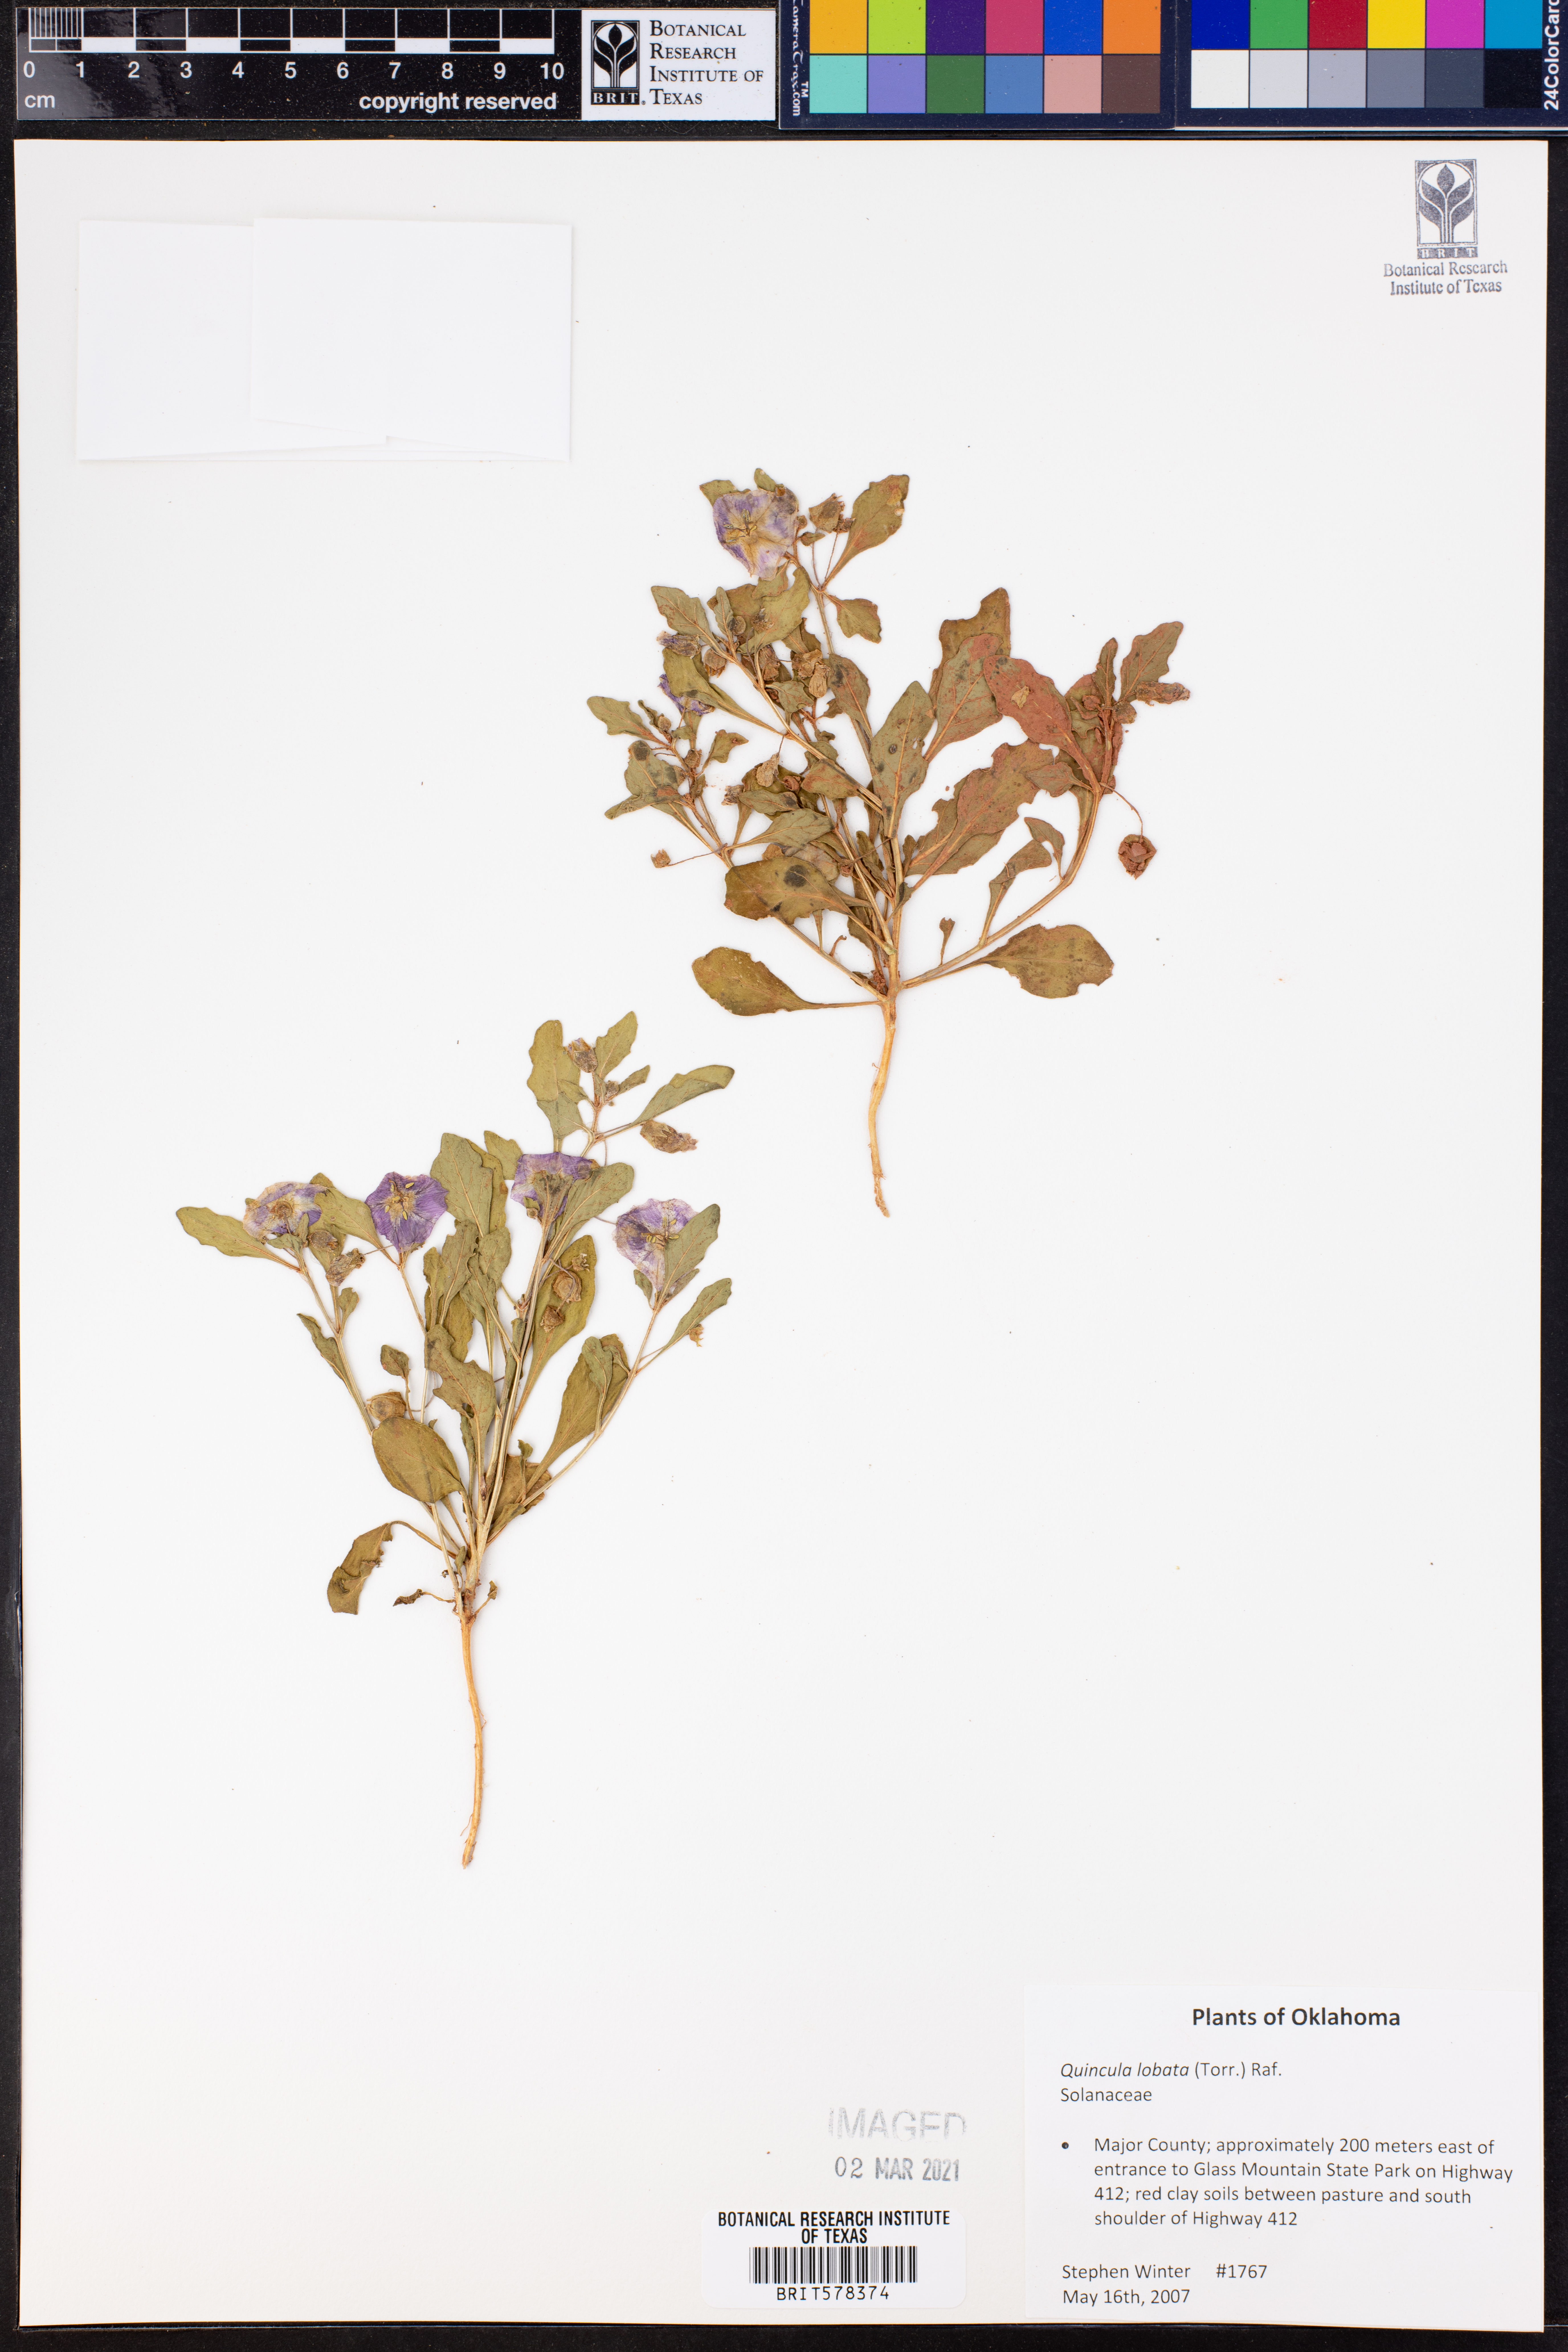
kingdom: Plantae
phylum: Tracheophyta
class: Magnoliopsida
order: Solanales
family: Solanaceae
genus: Quincula
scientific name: Quincula lobata
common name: Purple-ground-cherry
